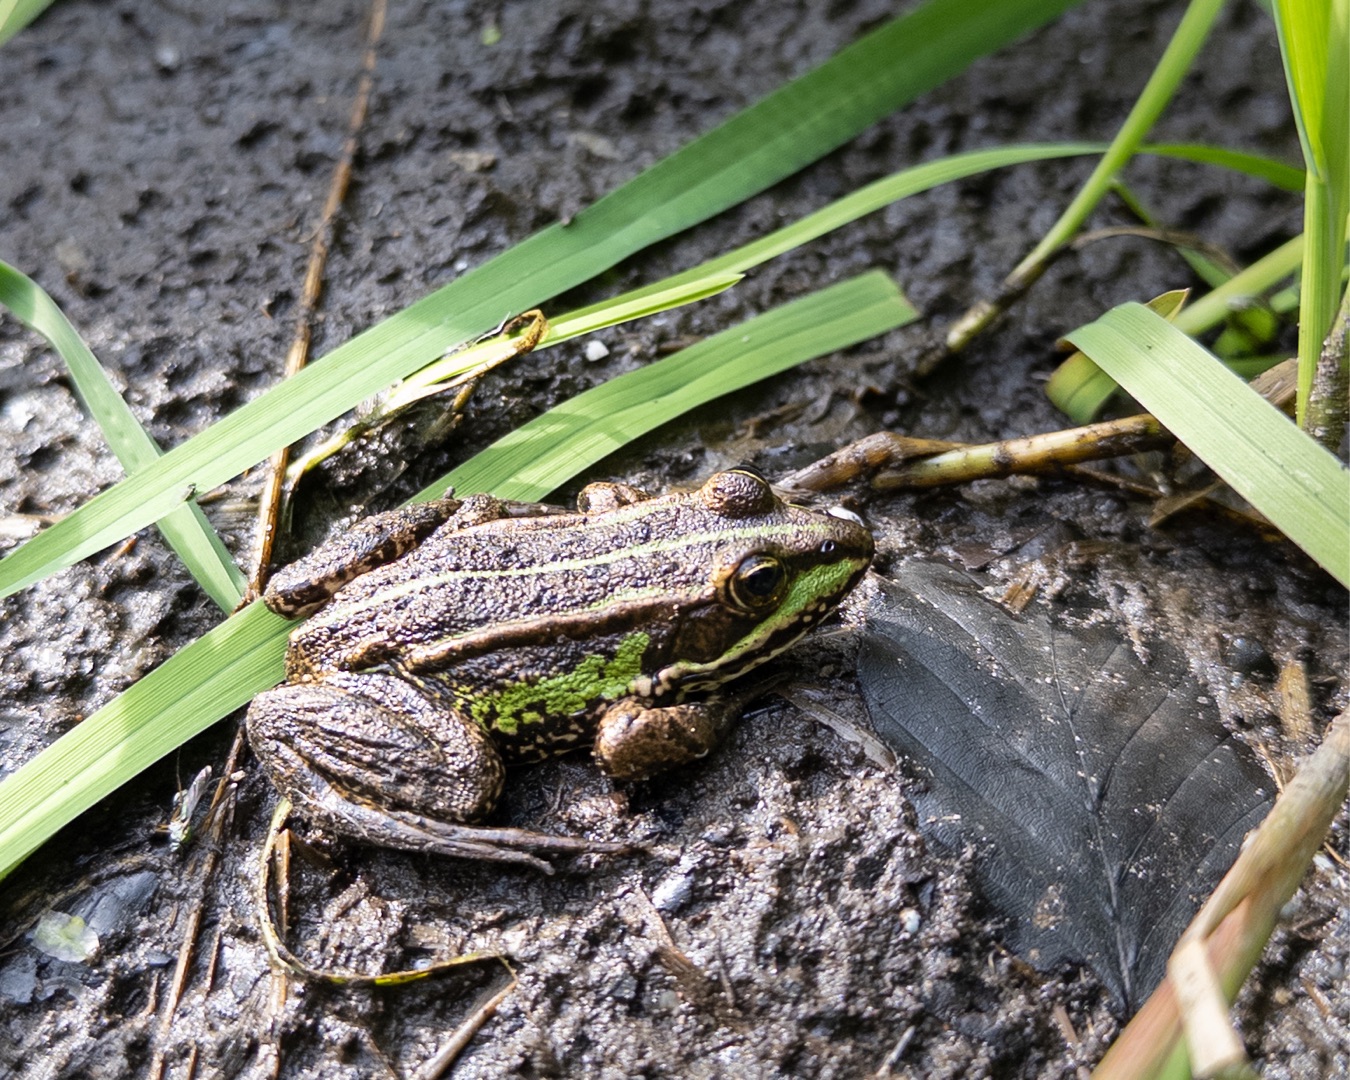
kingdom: Animalia
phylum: Chordata
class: Amphibia
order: Anura
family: Ranidae
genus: Pelophylax
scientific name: Pelophylax lessonae
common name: Grøn frø
